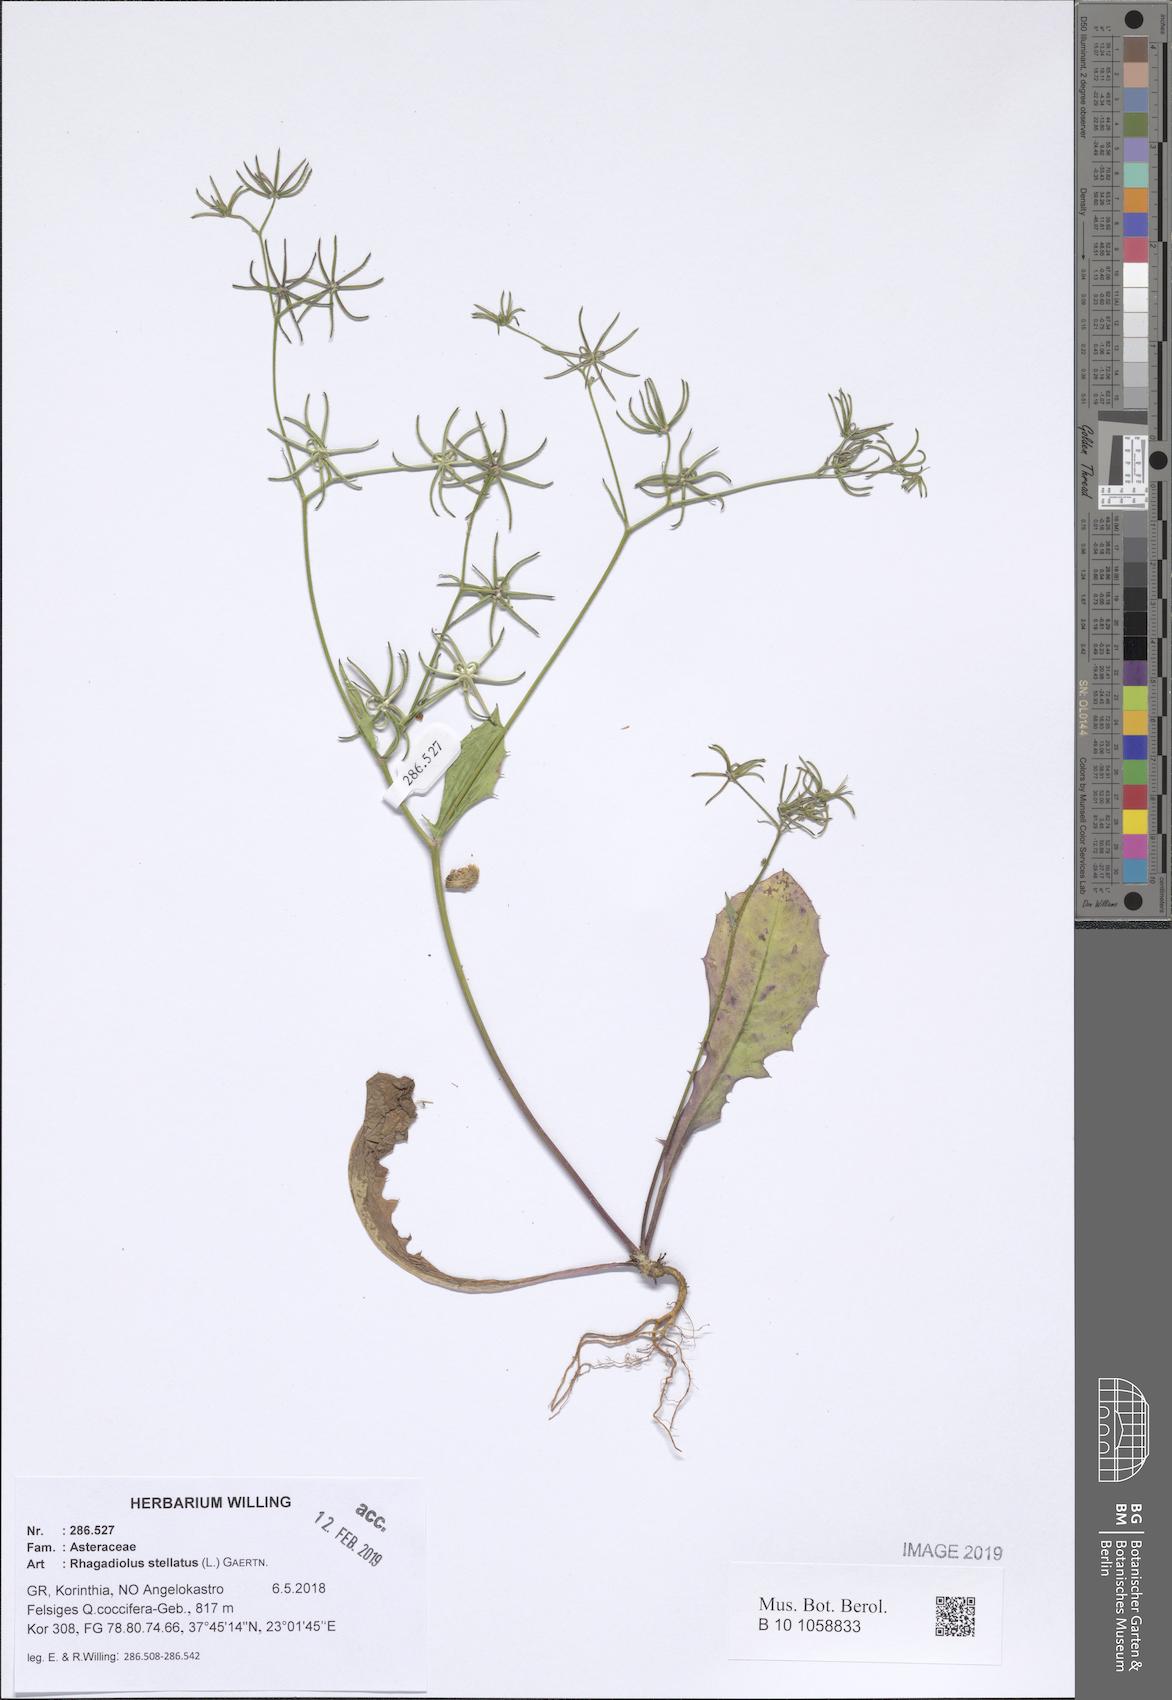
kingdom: Plantae
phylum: Tracheophyta
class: Magnoliopsida
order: Asterales
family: Asteraceae
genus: Rhagadiolus
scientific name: Rhagadiolus stellatus
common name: Star hawkbit
